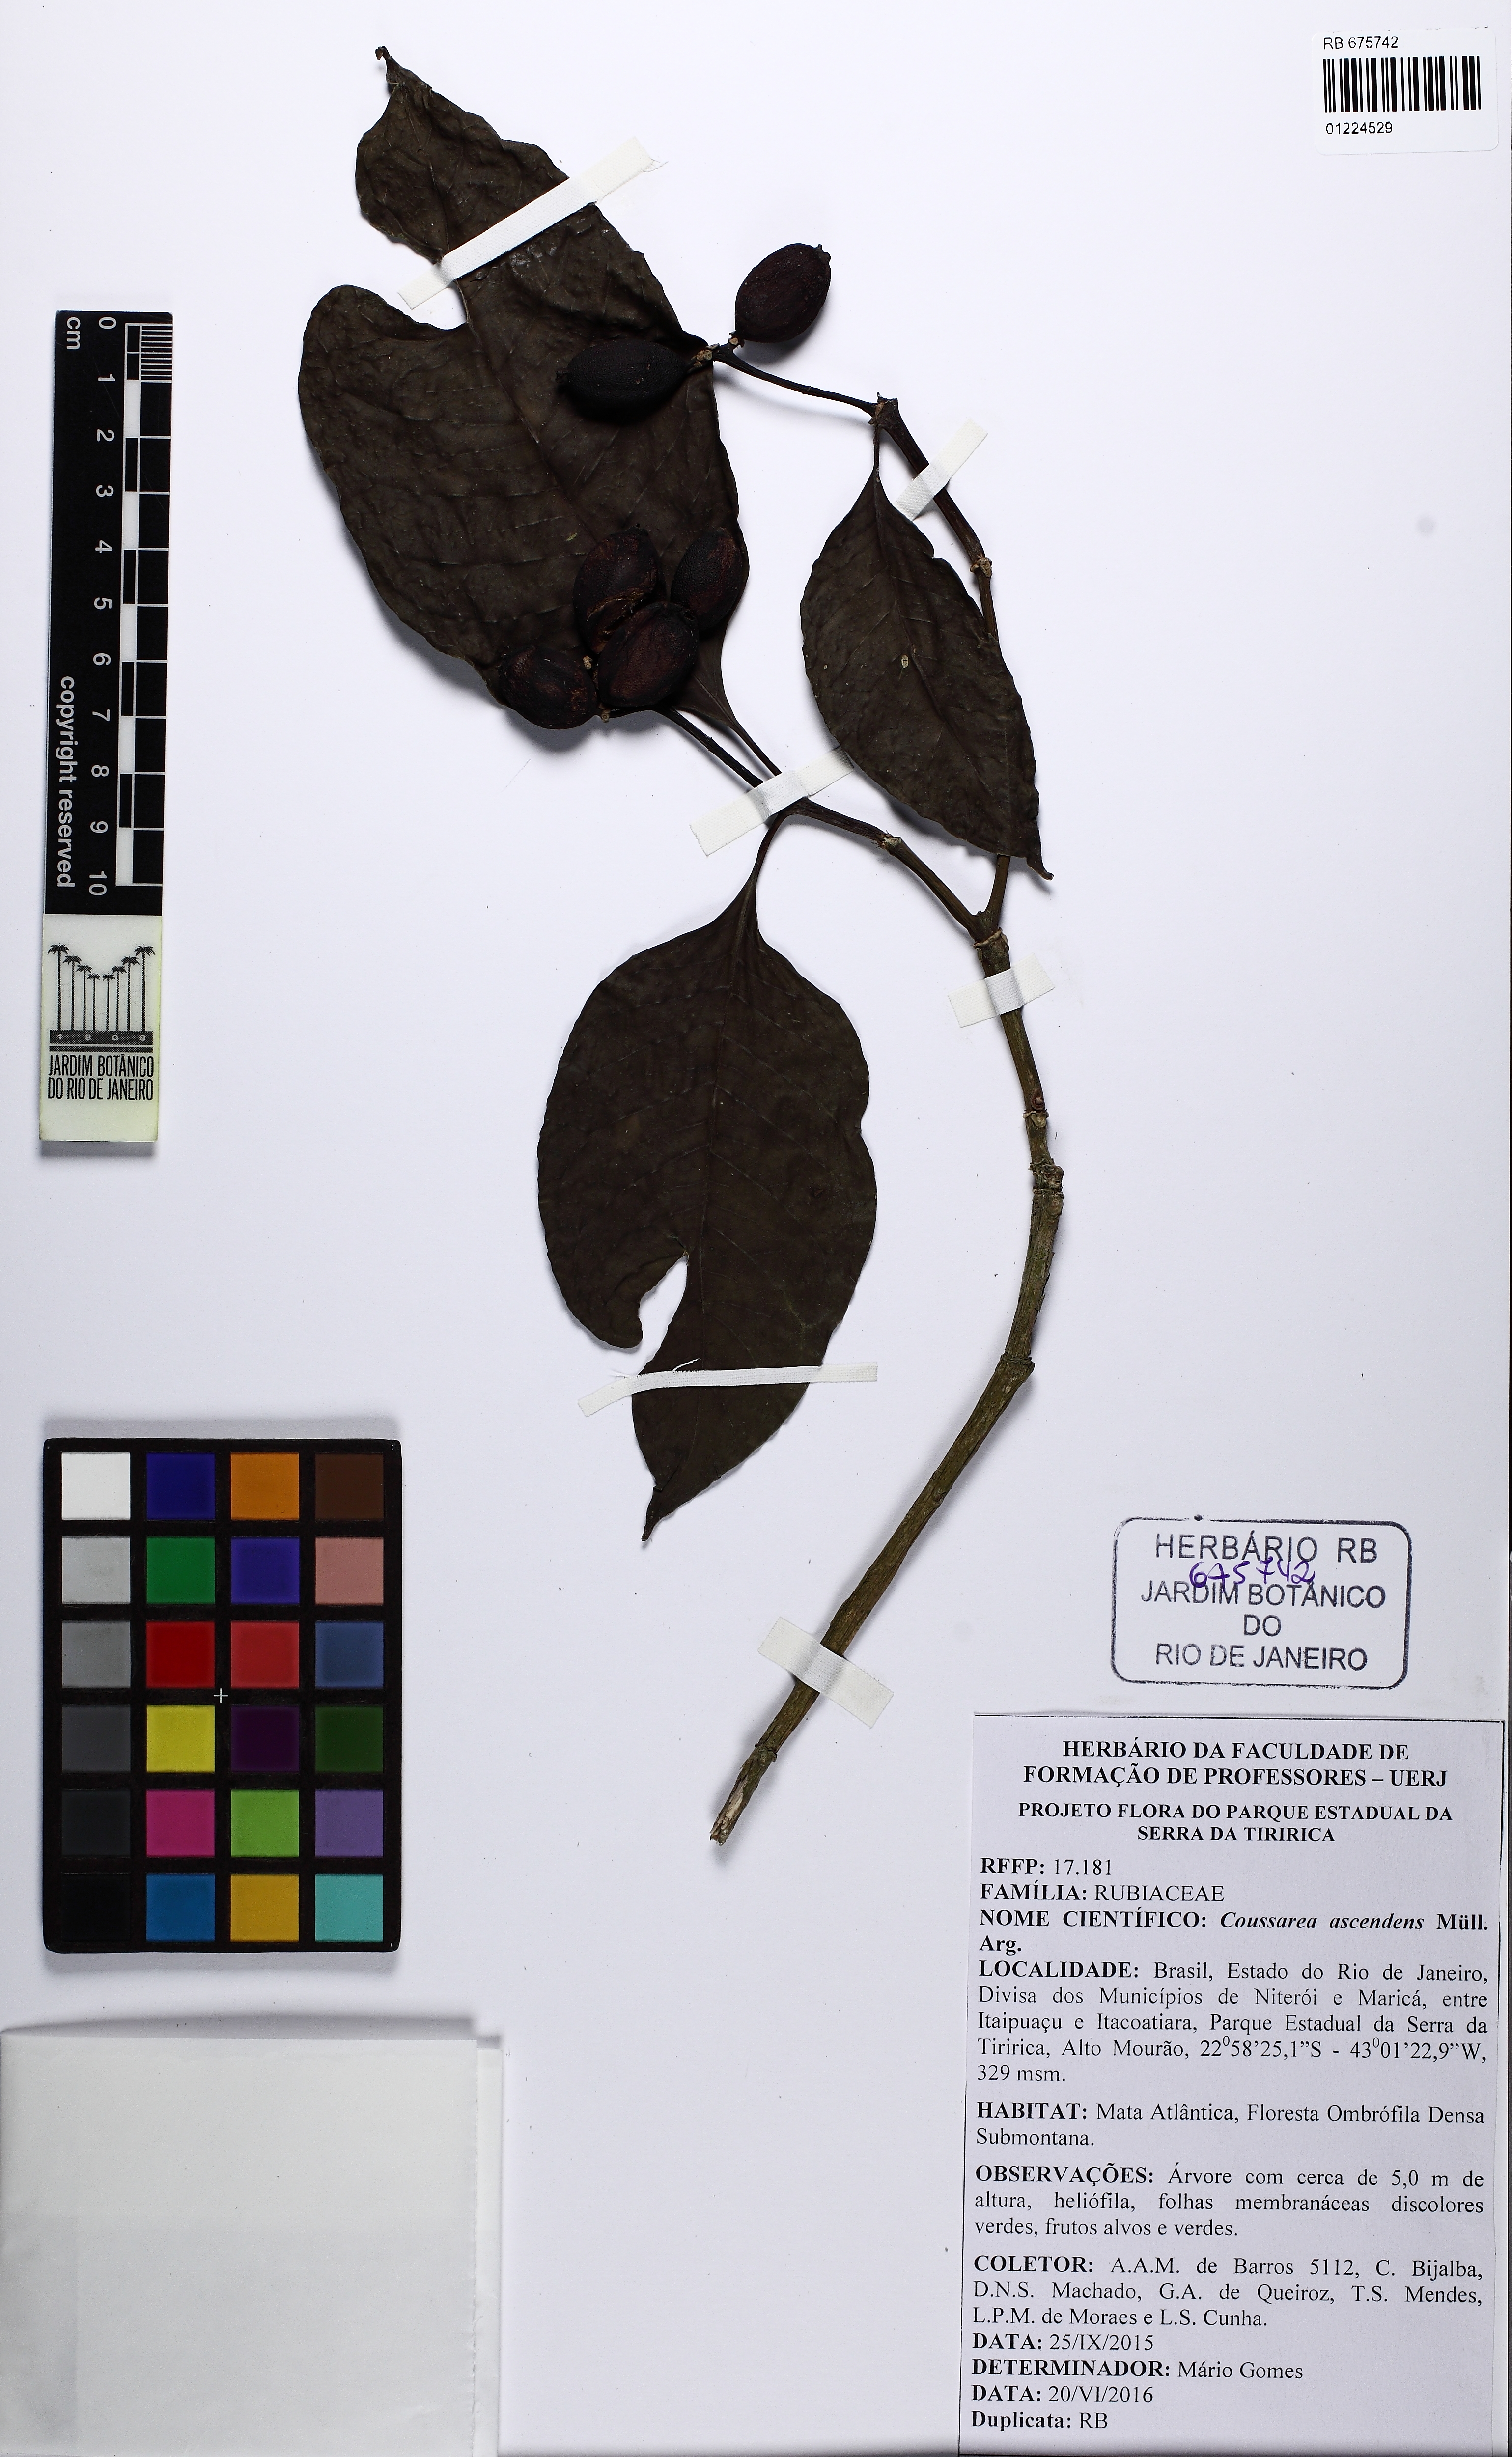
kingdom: Plantae
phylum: Tracheophyta
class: Magnoliopsida
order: Gentianales
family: Rubiaceae
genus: Coussarea
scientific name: Coussarea accedens
